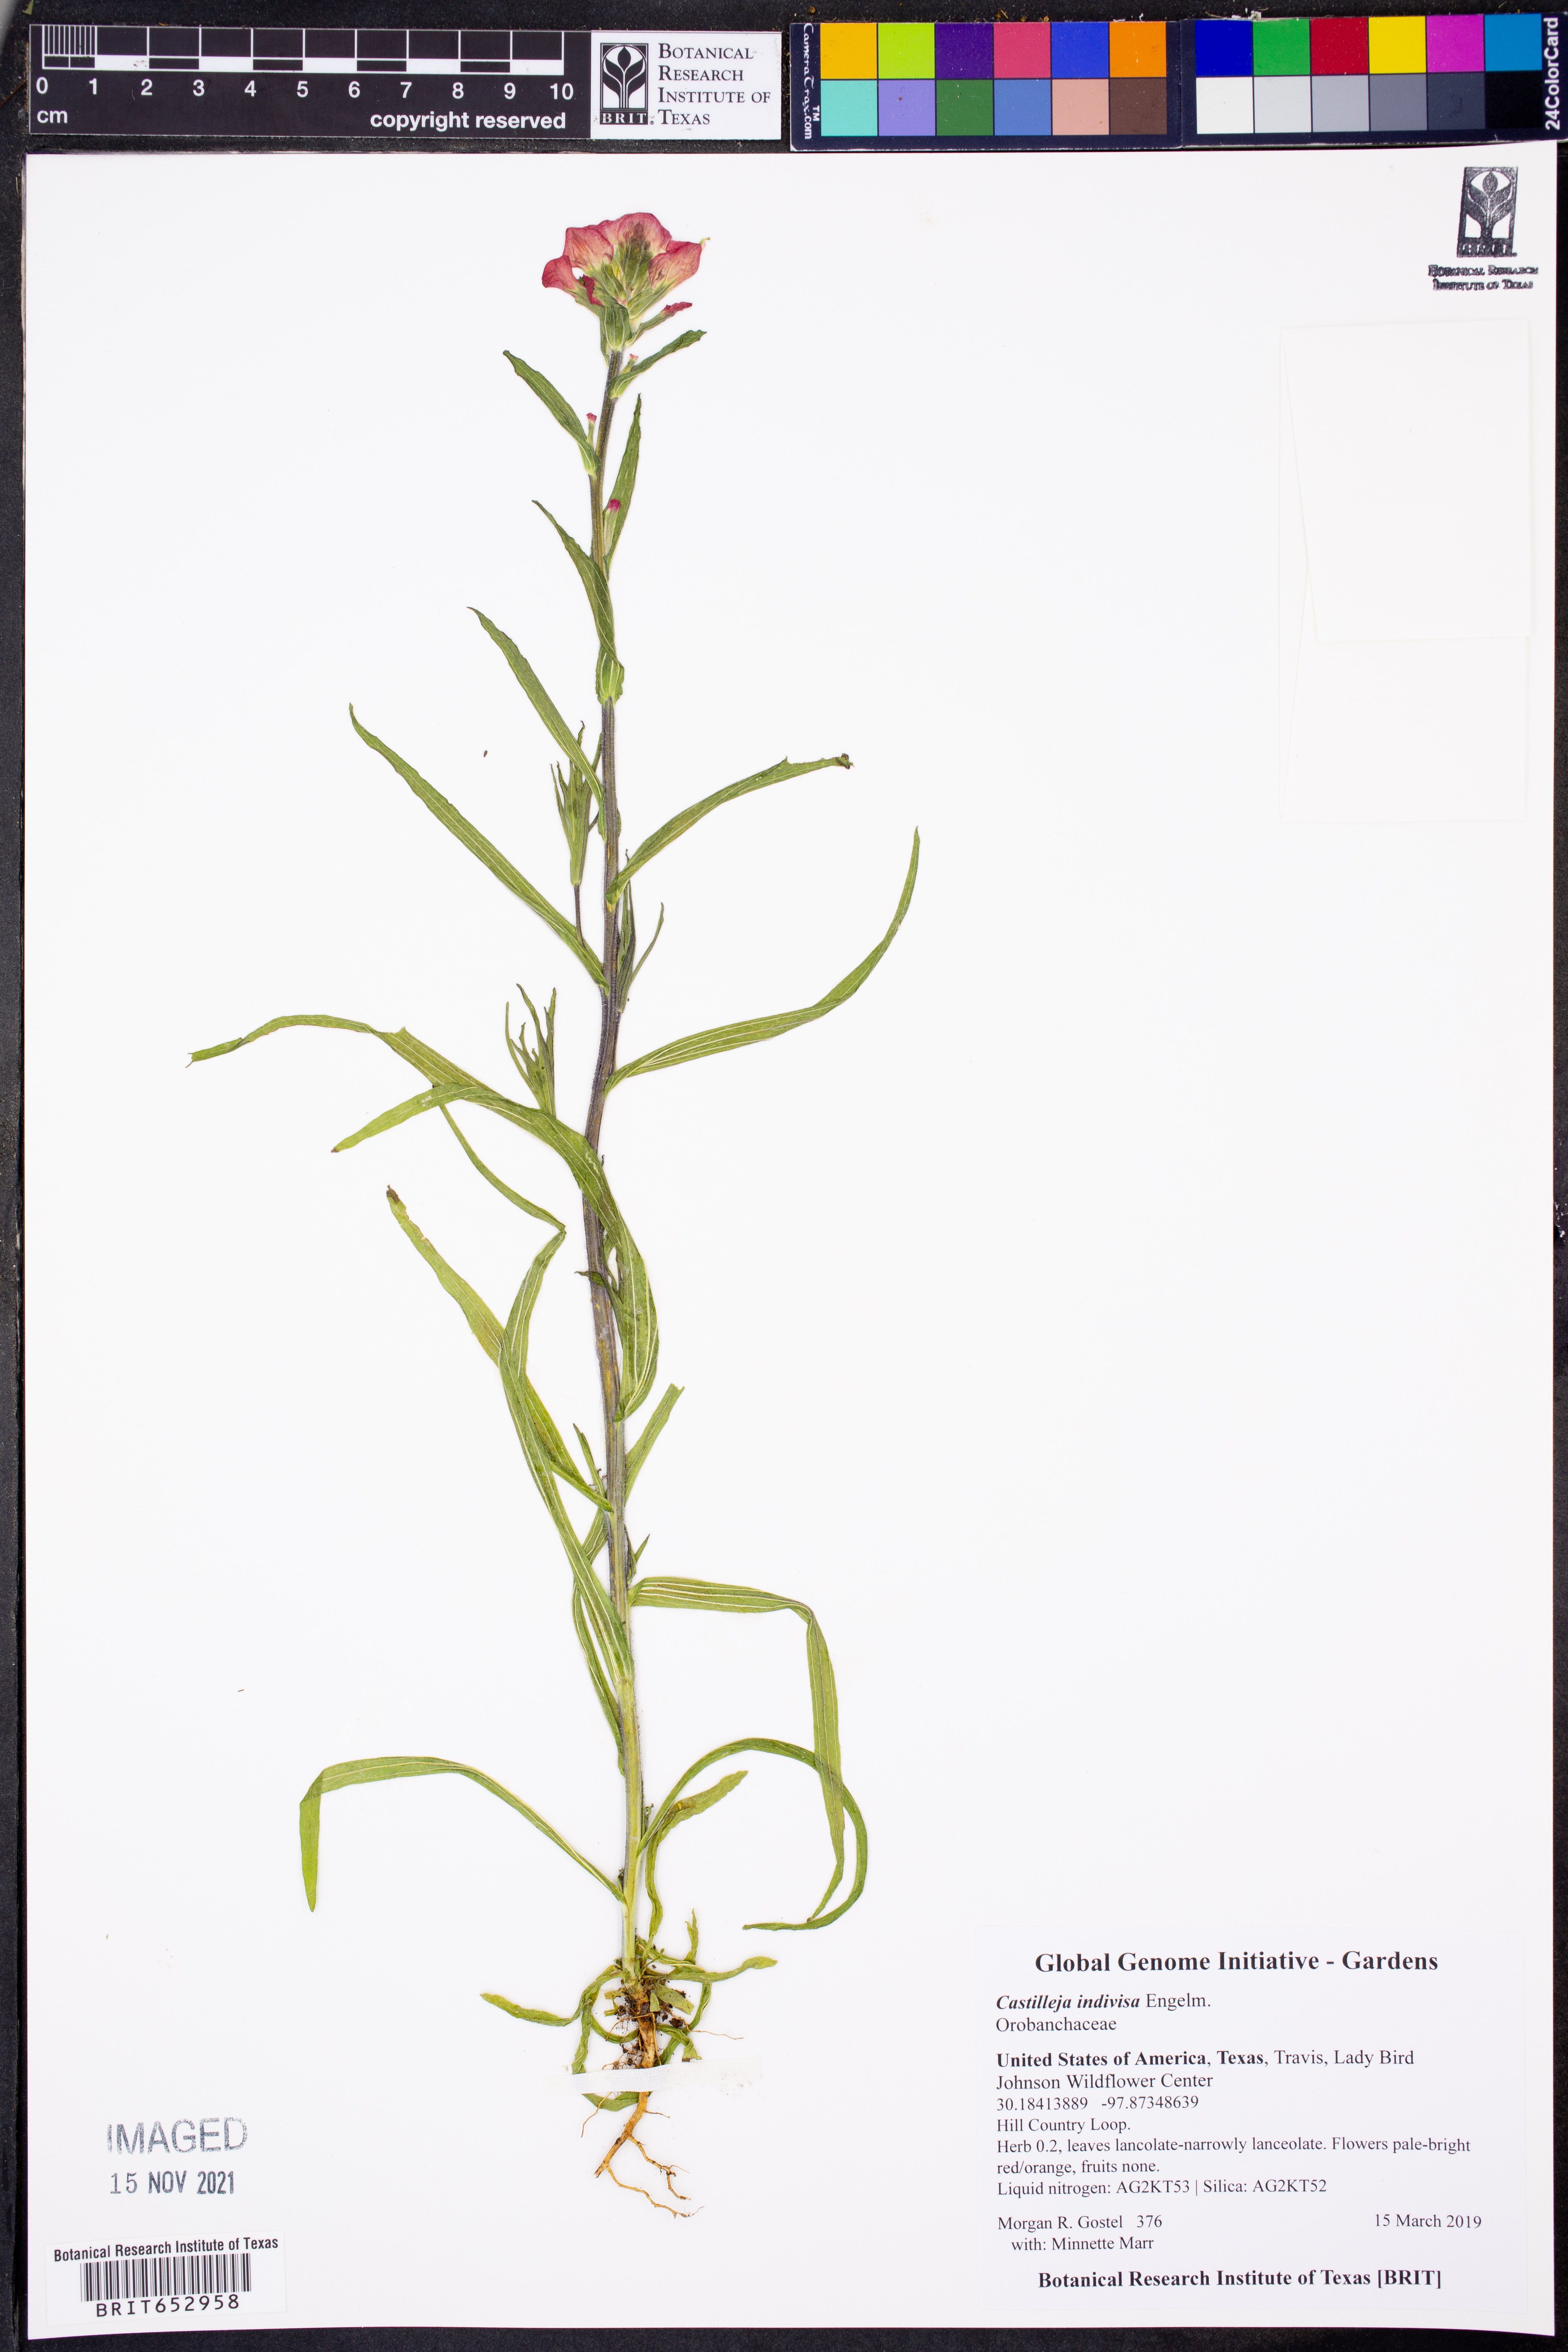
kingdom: Plantae
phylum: Tracheophyta
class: Magnoliopsida
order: Lamiales
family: Orobanchaceae
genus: Castilleja
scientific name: Castilleja indivisa
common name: Texas paintbrush
